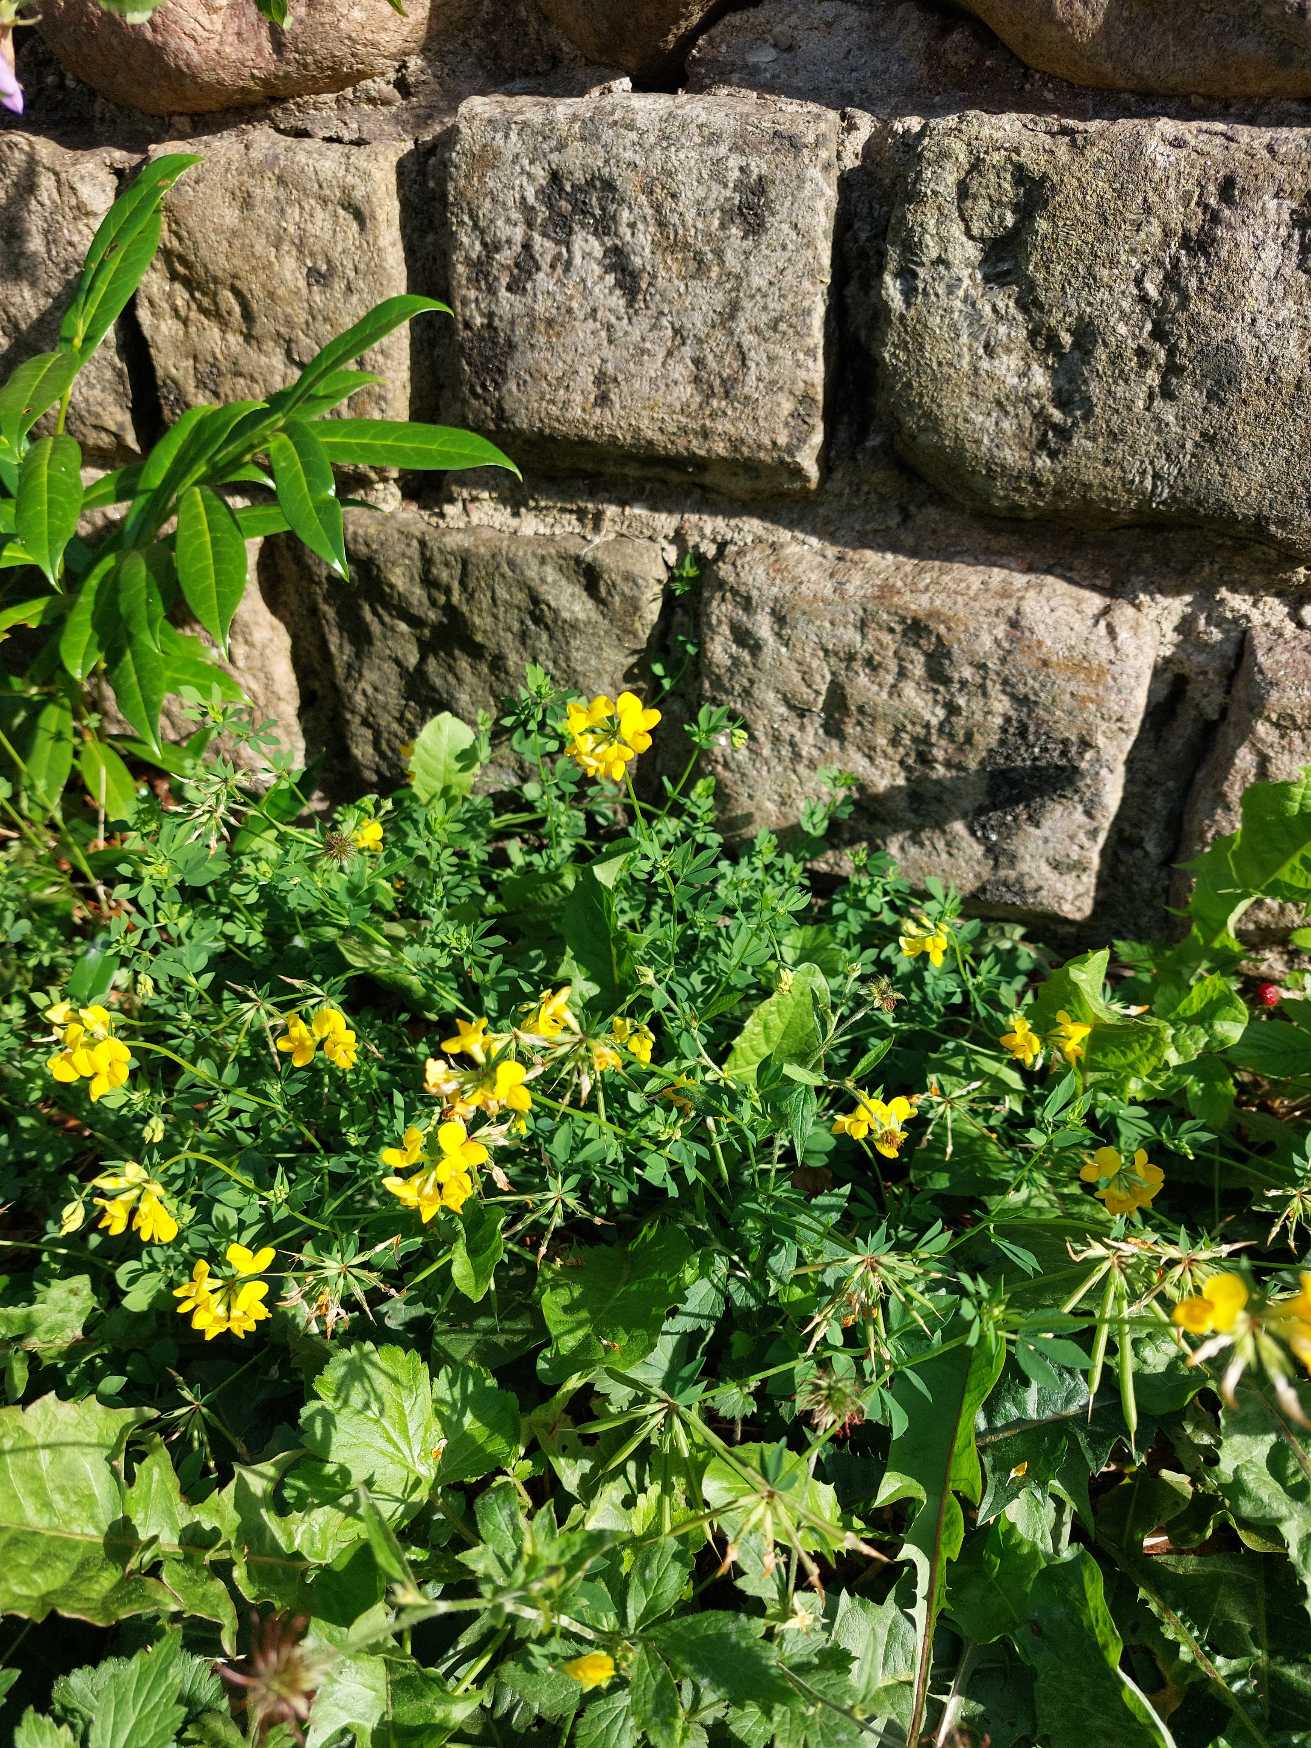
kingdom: Plantae
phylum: Tracheophyta
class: Magnoliopsida
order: Fabales
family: Fabaceae
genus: Lotus
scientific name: Lotus corniculatus
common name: Almindelig kællingetand
